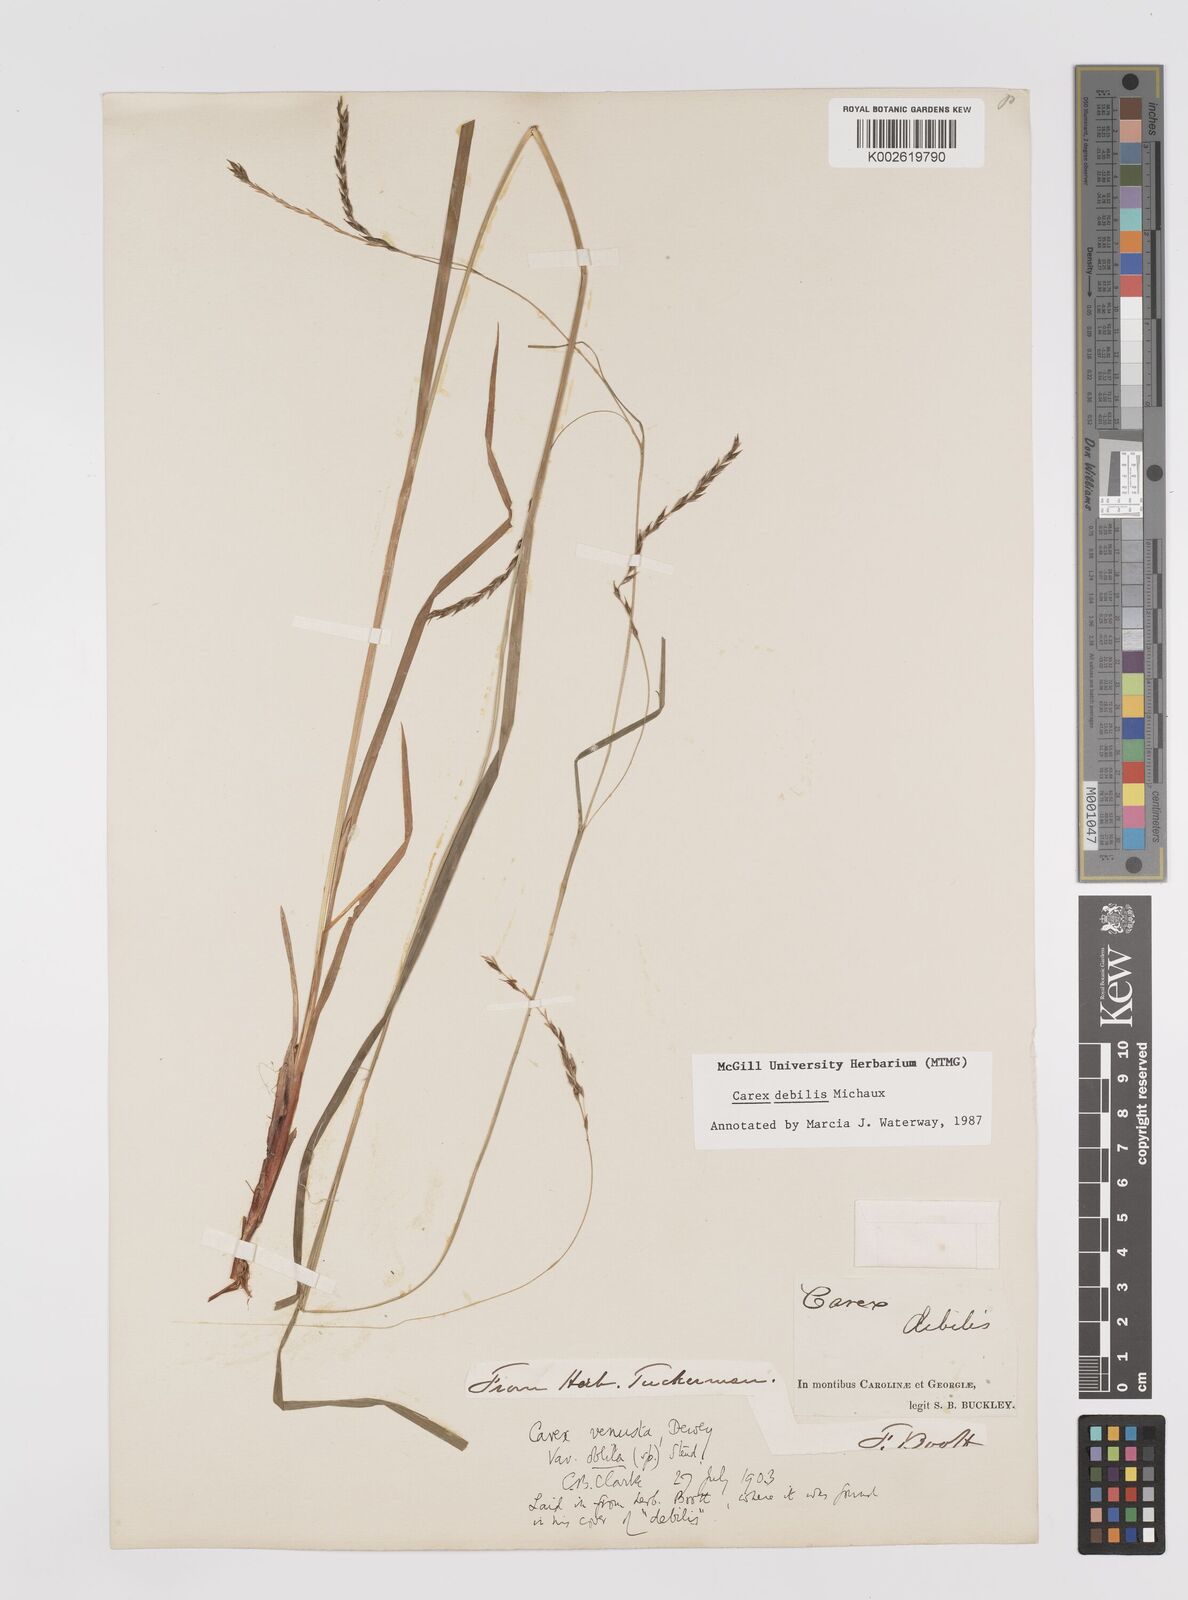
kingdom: Plantae
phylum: Tracheophyta
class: Liliopsida
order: Poales
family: Cyperaceae
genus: Carex
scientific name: Carex debilis
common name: White-edge sedge
